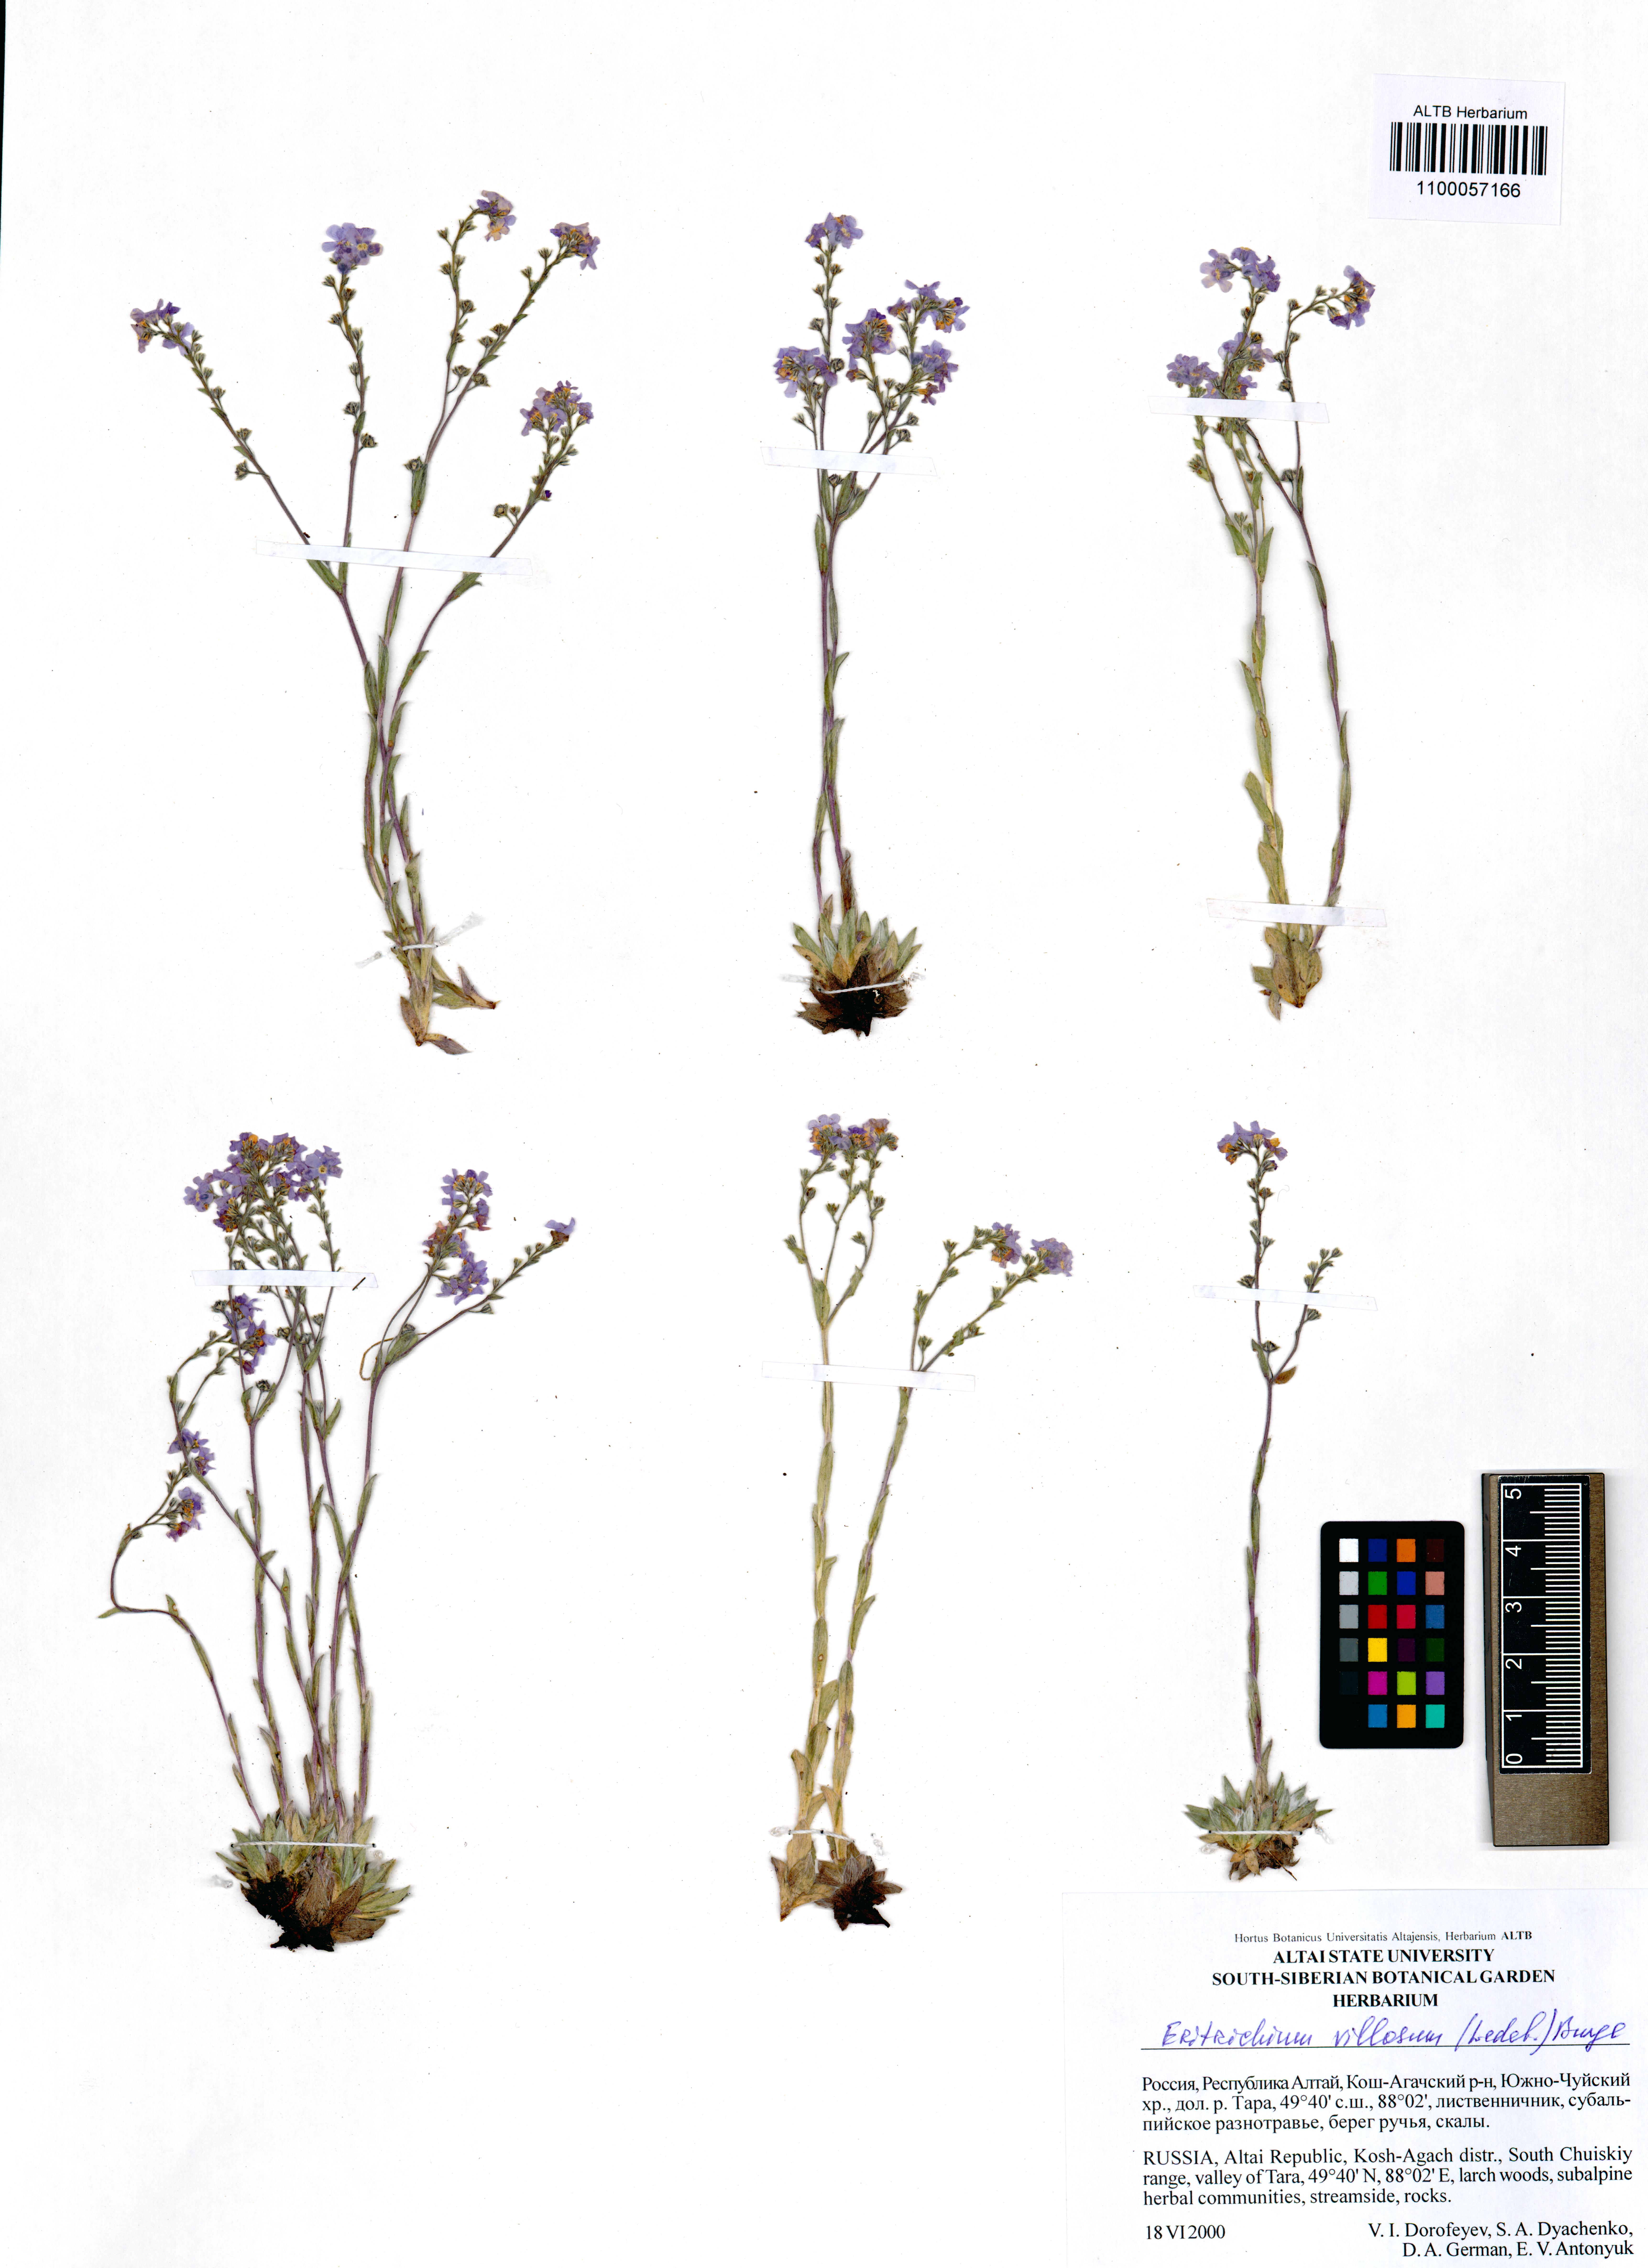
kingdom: Plantae
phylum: Tracheophyta
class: Magnoliopsida
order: Boraginales
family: Boraginaceae
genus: Eritrichium
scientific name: Eritrichium villosum
